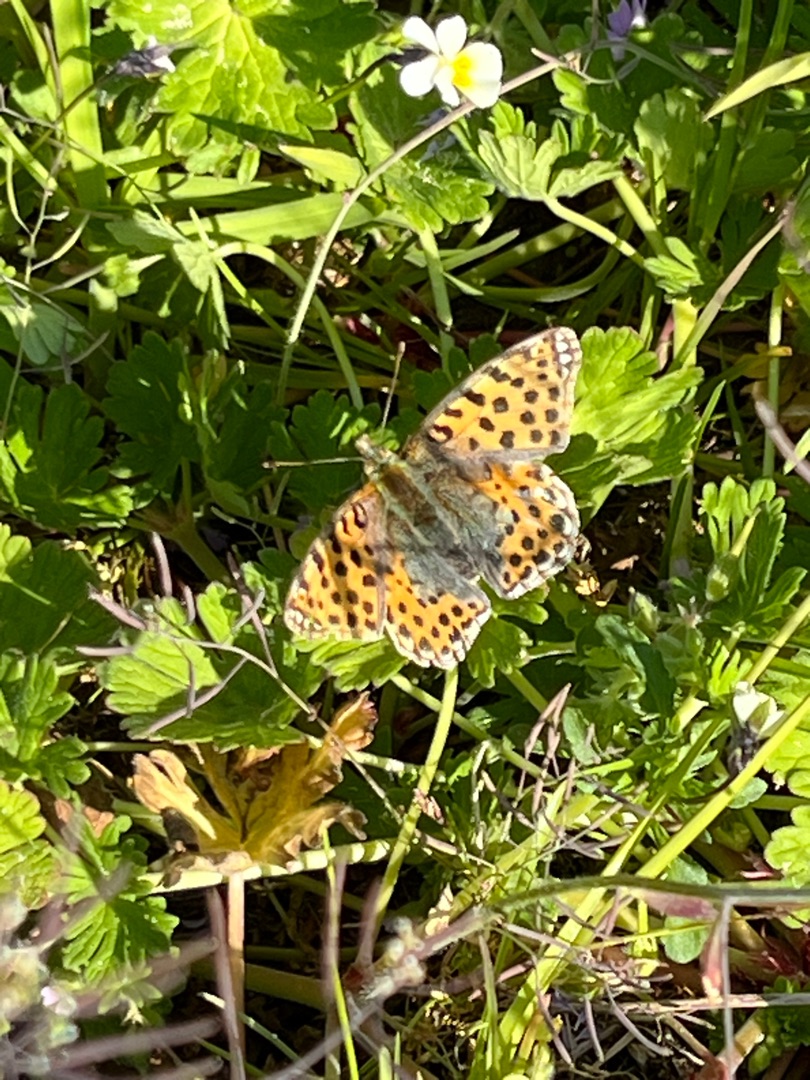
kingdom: Animalia
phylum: Arthropoda
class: Insecta
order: Lepidoptera
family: Nymphalidae
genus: Issoria
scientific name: Issoria lathonia
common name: Storplettet perlemorsommerfugl
